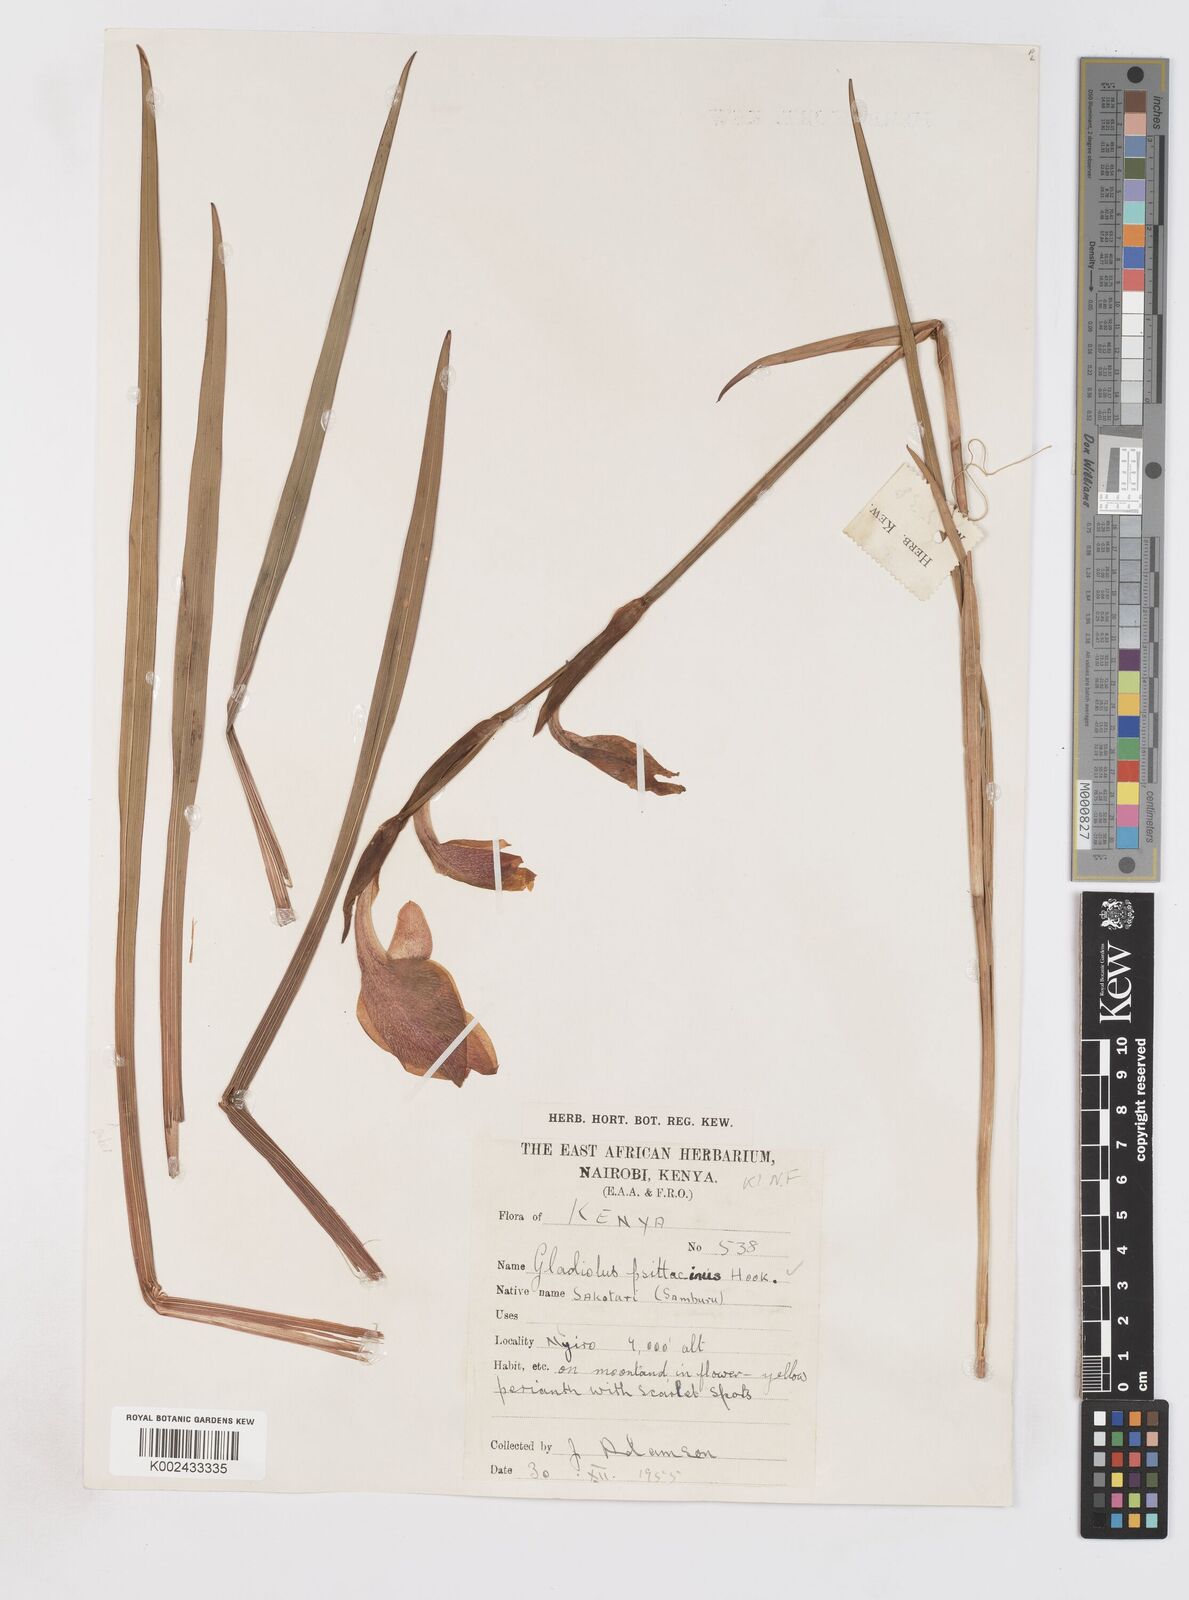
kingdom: Plantae
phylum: Tracheophyta
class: Liliopsida
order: Asparagales
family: Iridaceae
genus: Gladiolus
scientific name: Gladiolus dalenii
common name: Cornflag
